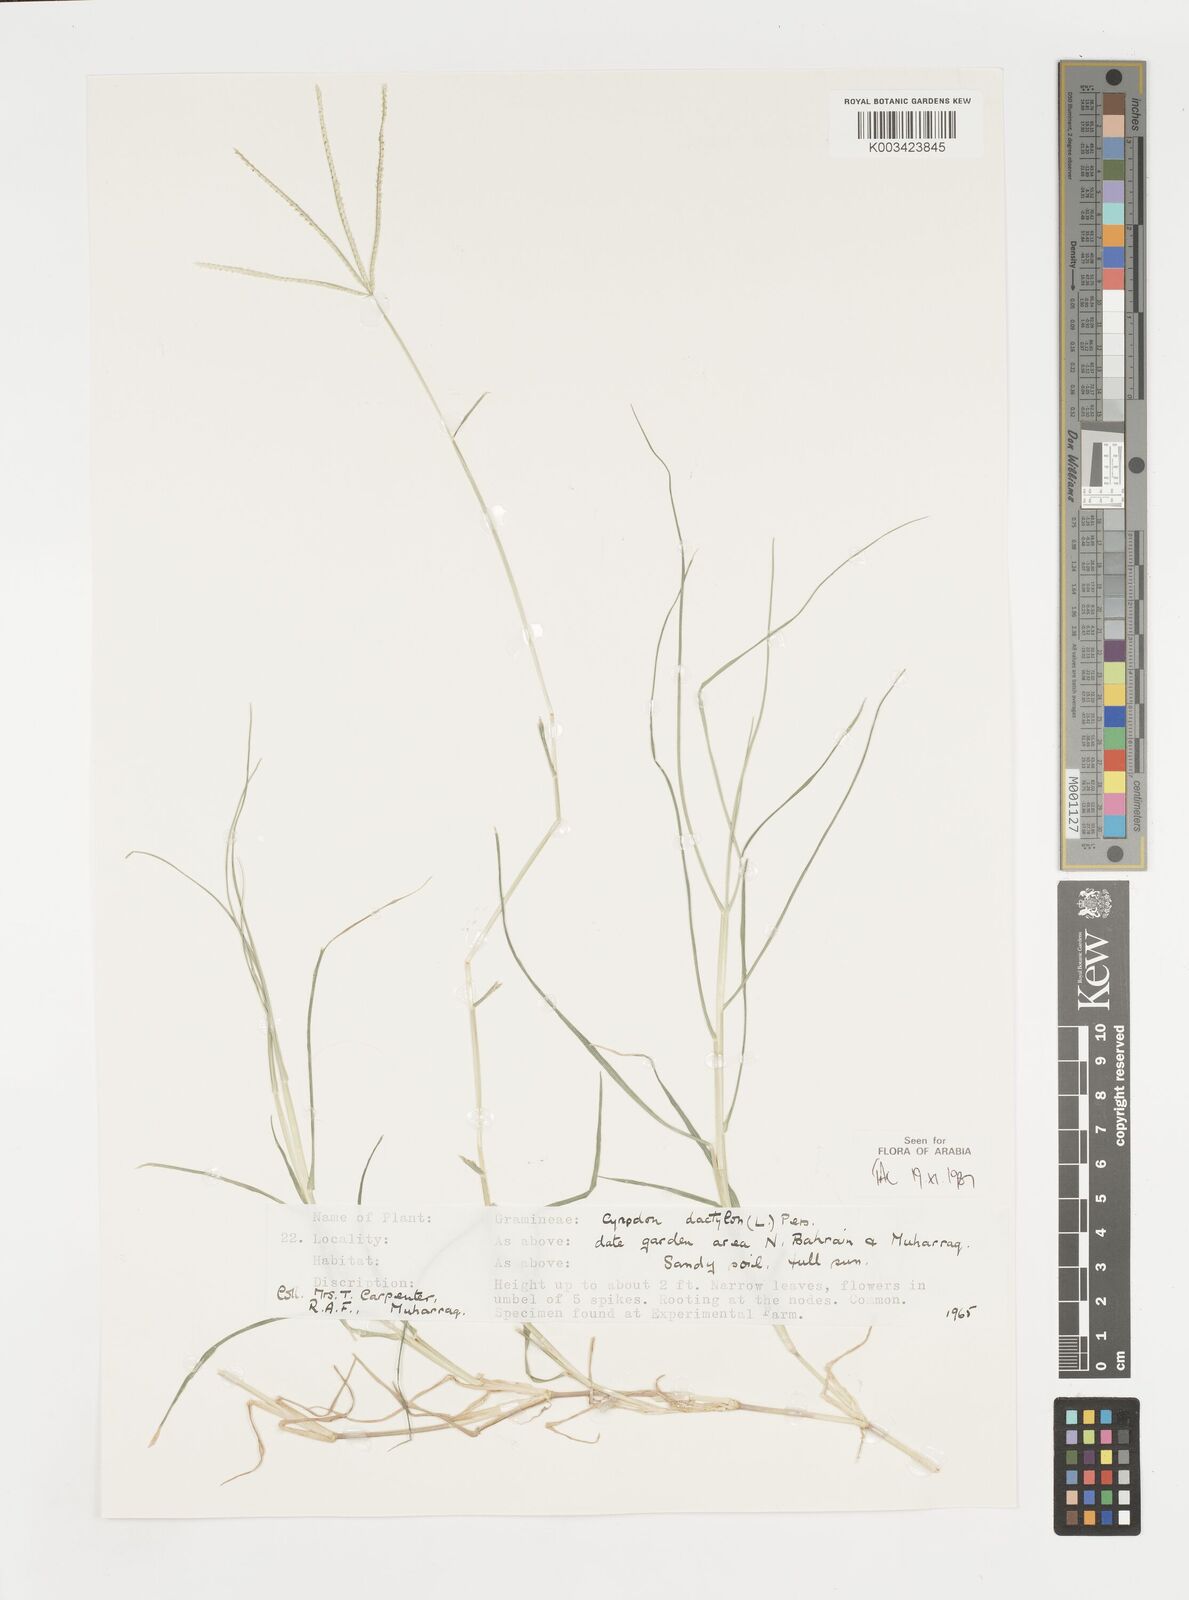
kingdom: Plantae
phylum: Tracheophyta
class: Liliopsida
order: Poales
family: Poaceae
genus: Cynodon
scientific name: Cynodon dactylon
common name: Bermuda grass
